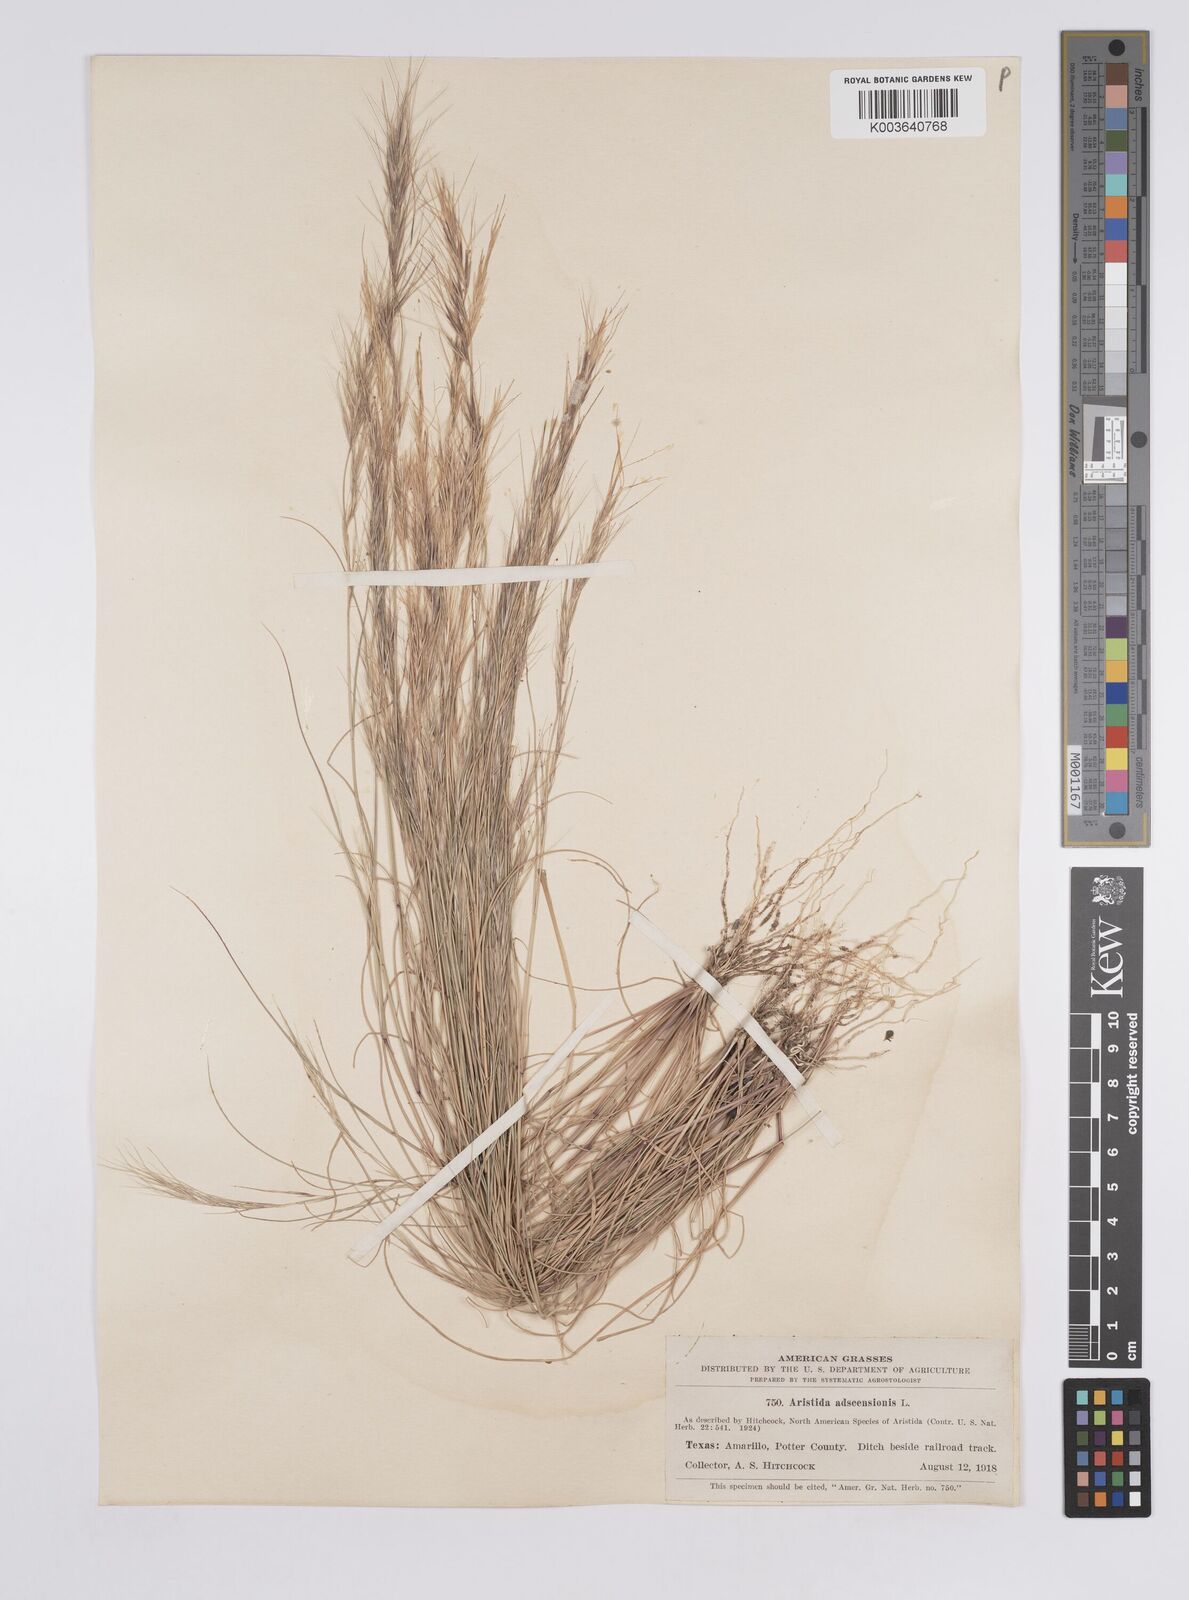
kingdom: Plantae
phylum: Tracheophyta
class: Liliopsida
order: Poales
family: Poaceae
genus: Aristida
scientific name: Aristida adscensionis
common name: Sixweeks threeawn
